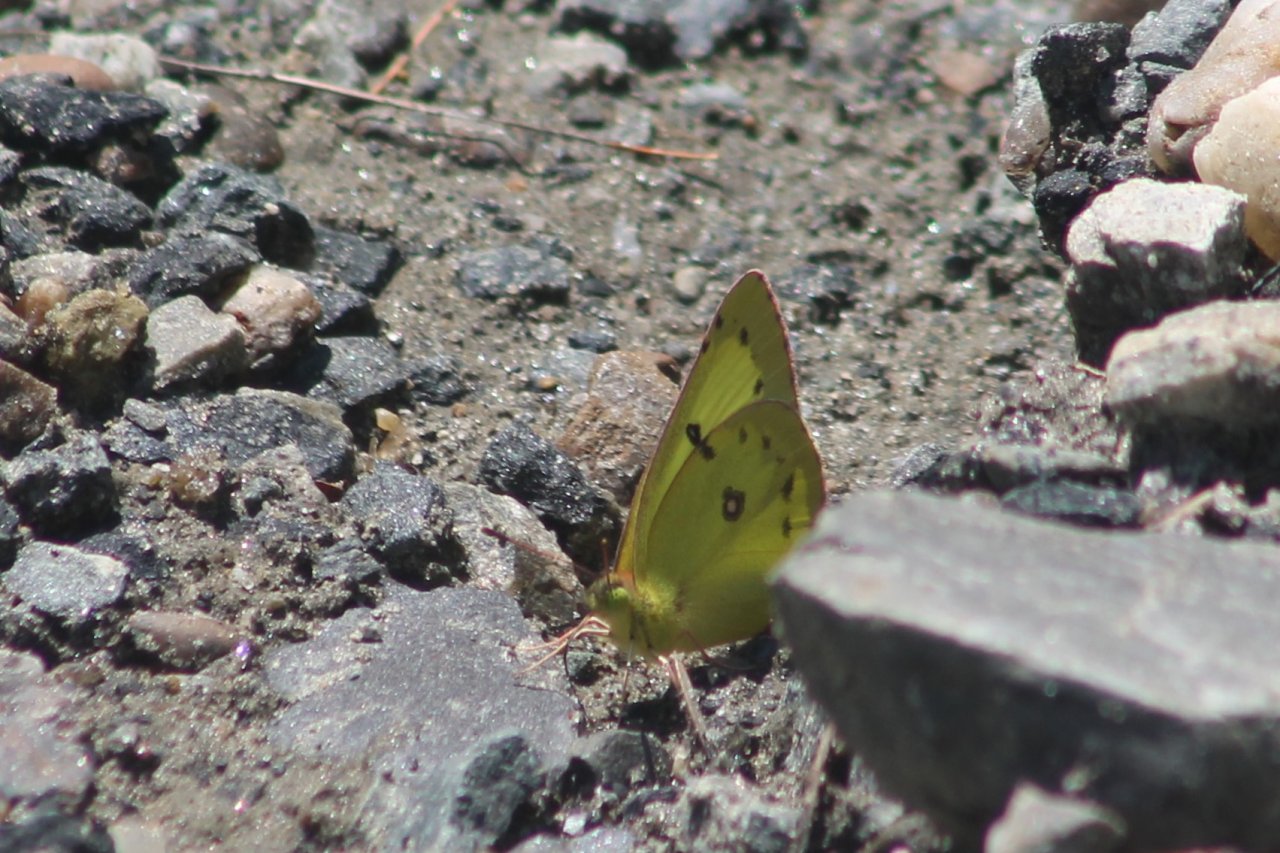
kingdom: Animalia
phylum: Arthropoda
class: Insecta
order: Lepidoptera
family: Pieridae
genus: Colias
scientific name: Colias philodice
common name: Clouded Sulphur
